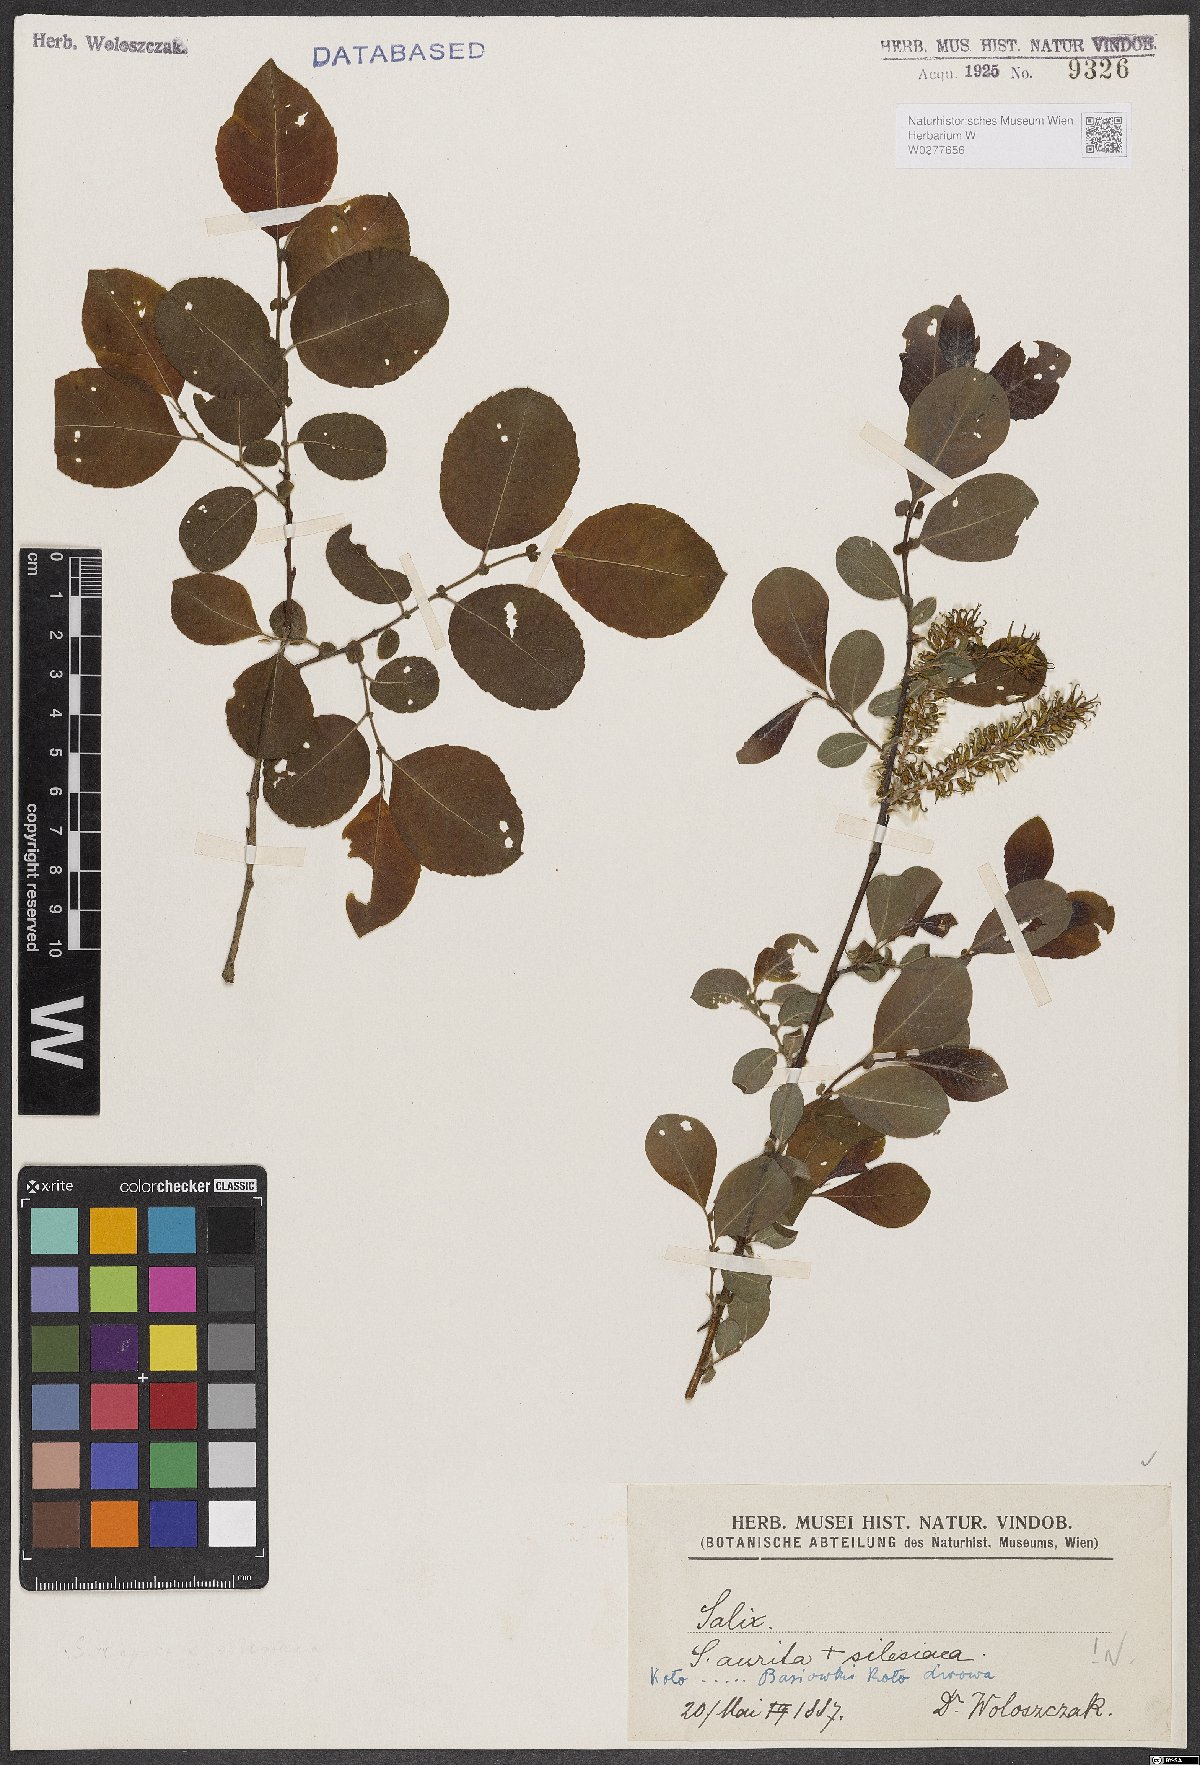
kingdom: Plantae
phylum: Tracheophyta
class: Magnoliopsida
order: Malpighiales
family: Salicaceae
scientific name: Salicaceae
